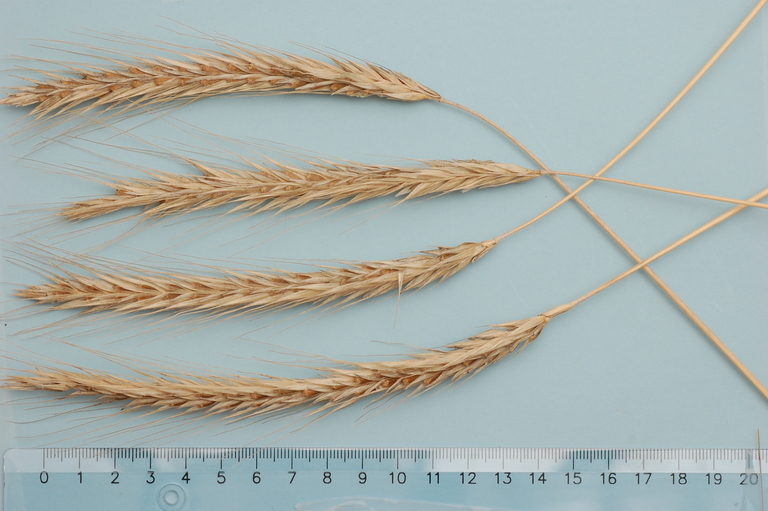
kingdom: Plantae
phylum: Tracheophyta
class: Liliopsida
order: Poales
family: Poaceae
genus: Secale
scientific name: Secale cereale
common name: Rye
